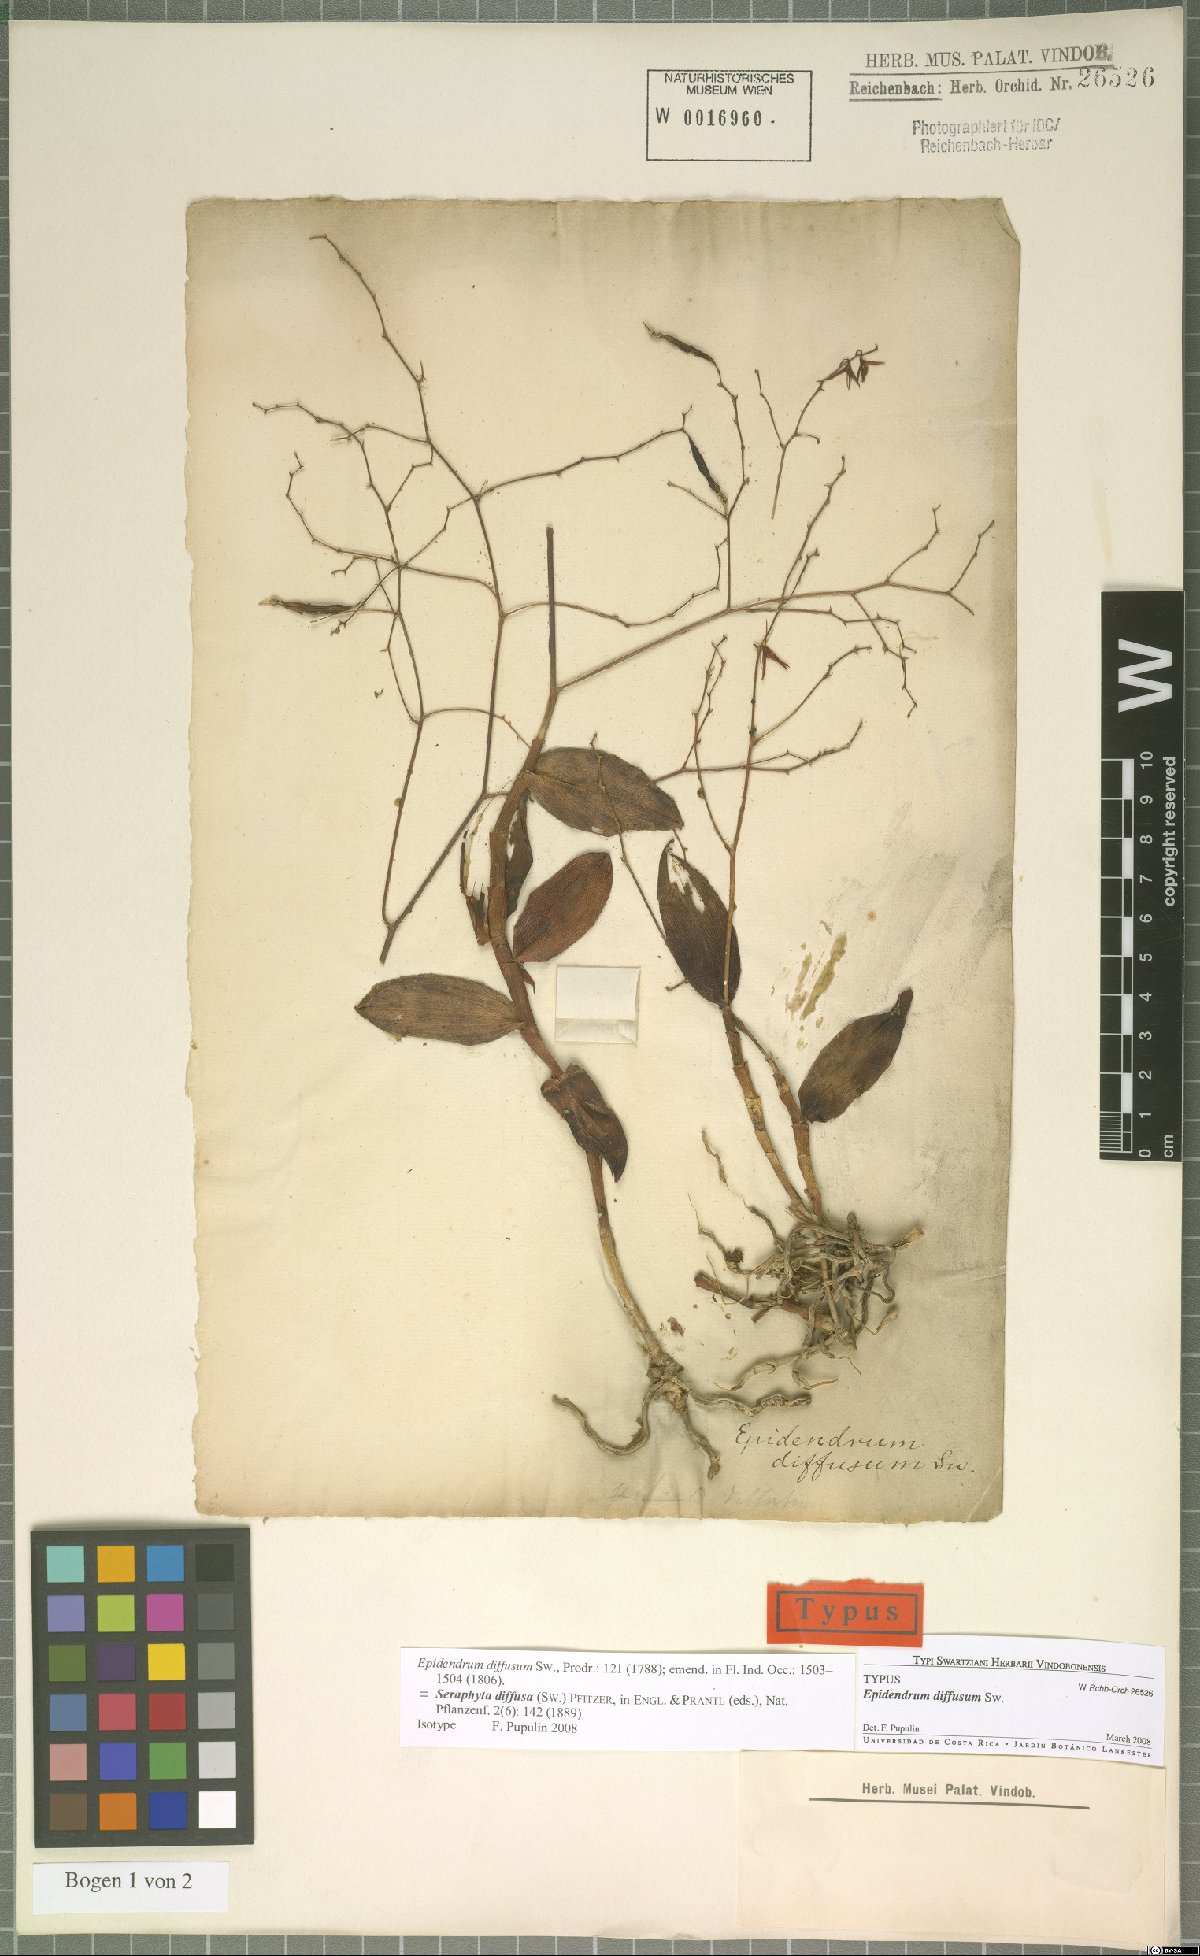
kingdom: Plantae
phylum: Tracheophyta
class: Liliopsida
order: Asparagales
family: Orchidaceae
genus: Epidendrum
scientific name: Epidendrum diffusum
